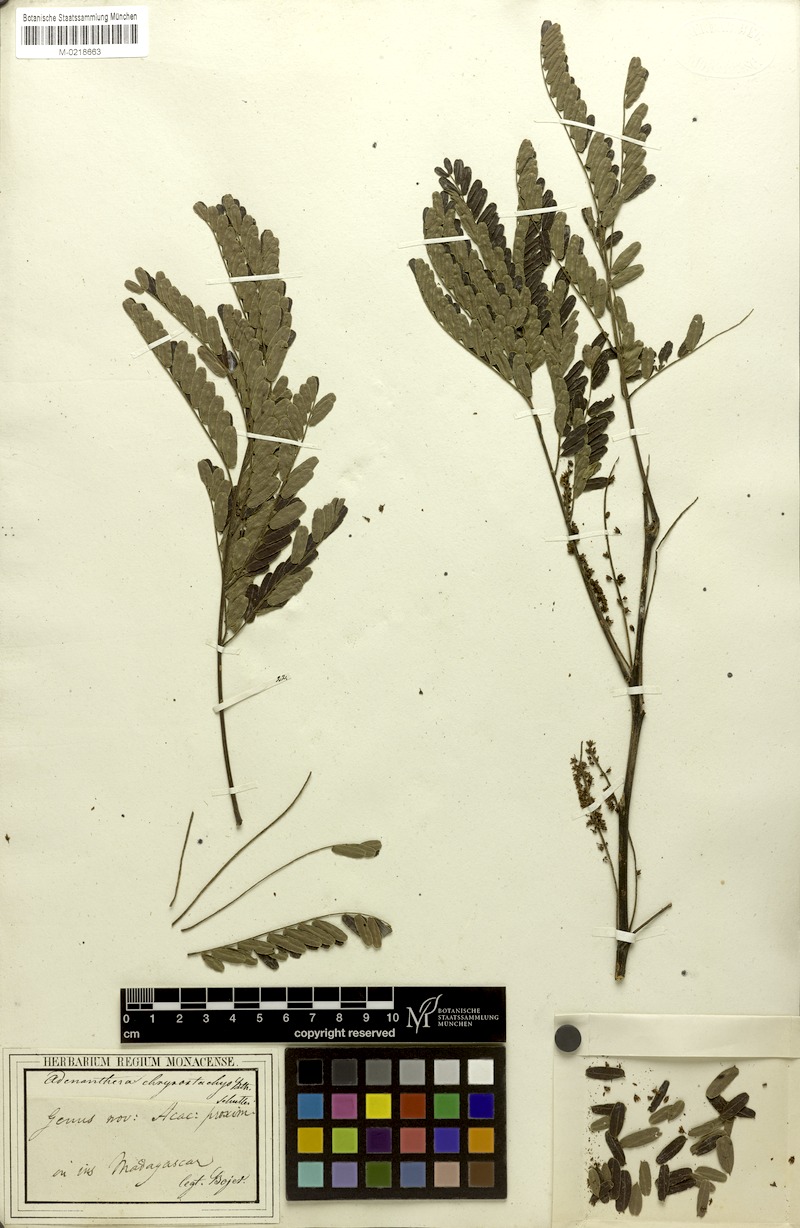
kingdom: Plantae
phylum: Tracheophyta
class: Magnoliopsida
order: Fabales
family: Fabaceae
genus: Entada
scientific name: Entada chrysostachys
